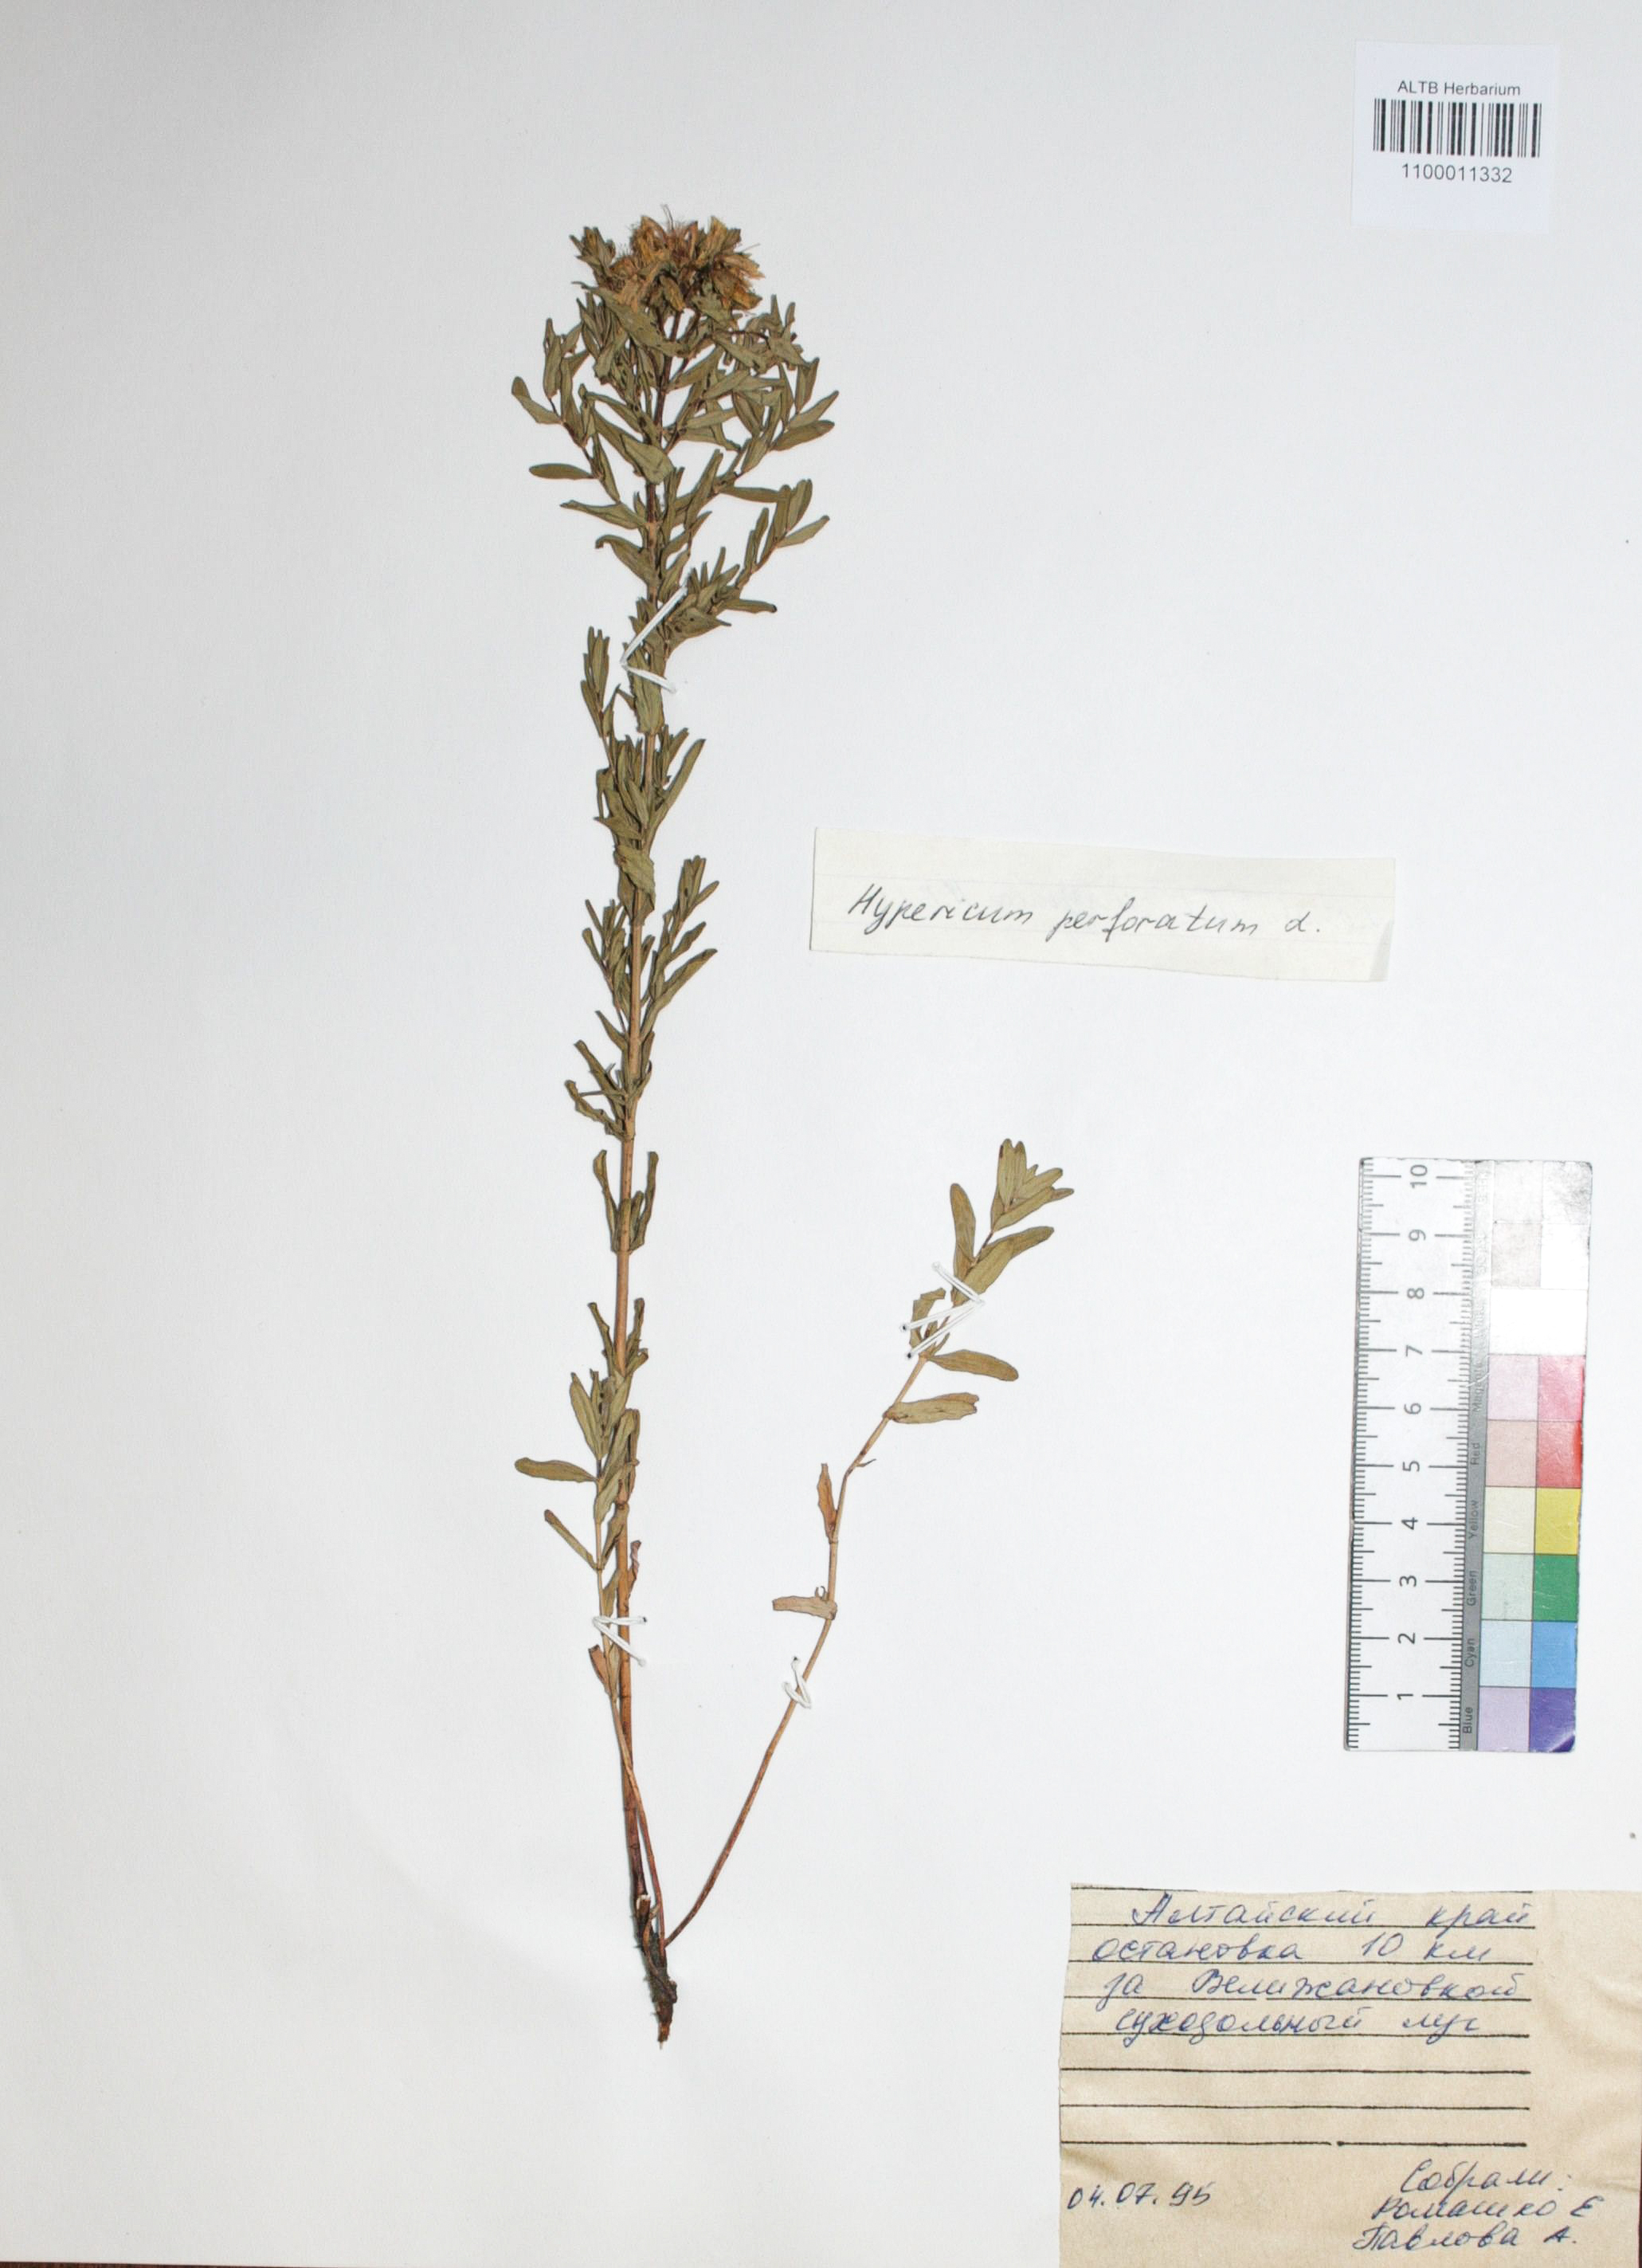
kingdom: Plantae
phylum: Tracheophyta
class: Magnoliopsida
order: Malpighiales
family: Hypericaceae
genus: Hypericum
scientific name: Hypericum perforatum
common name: Common st. johnswort
